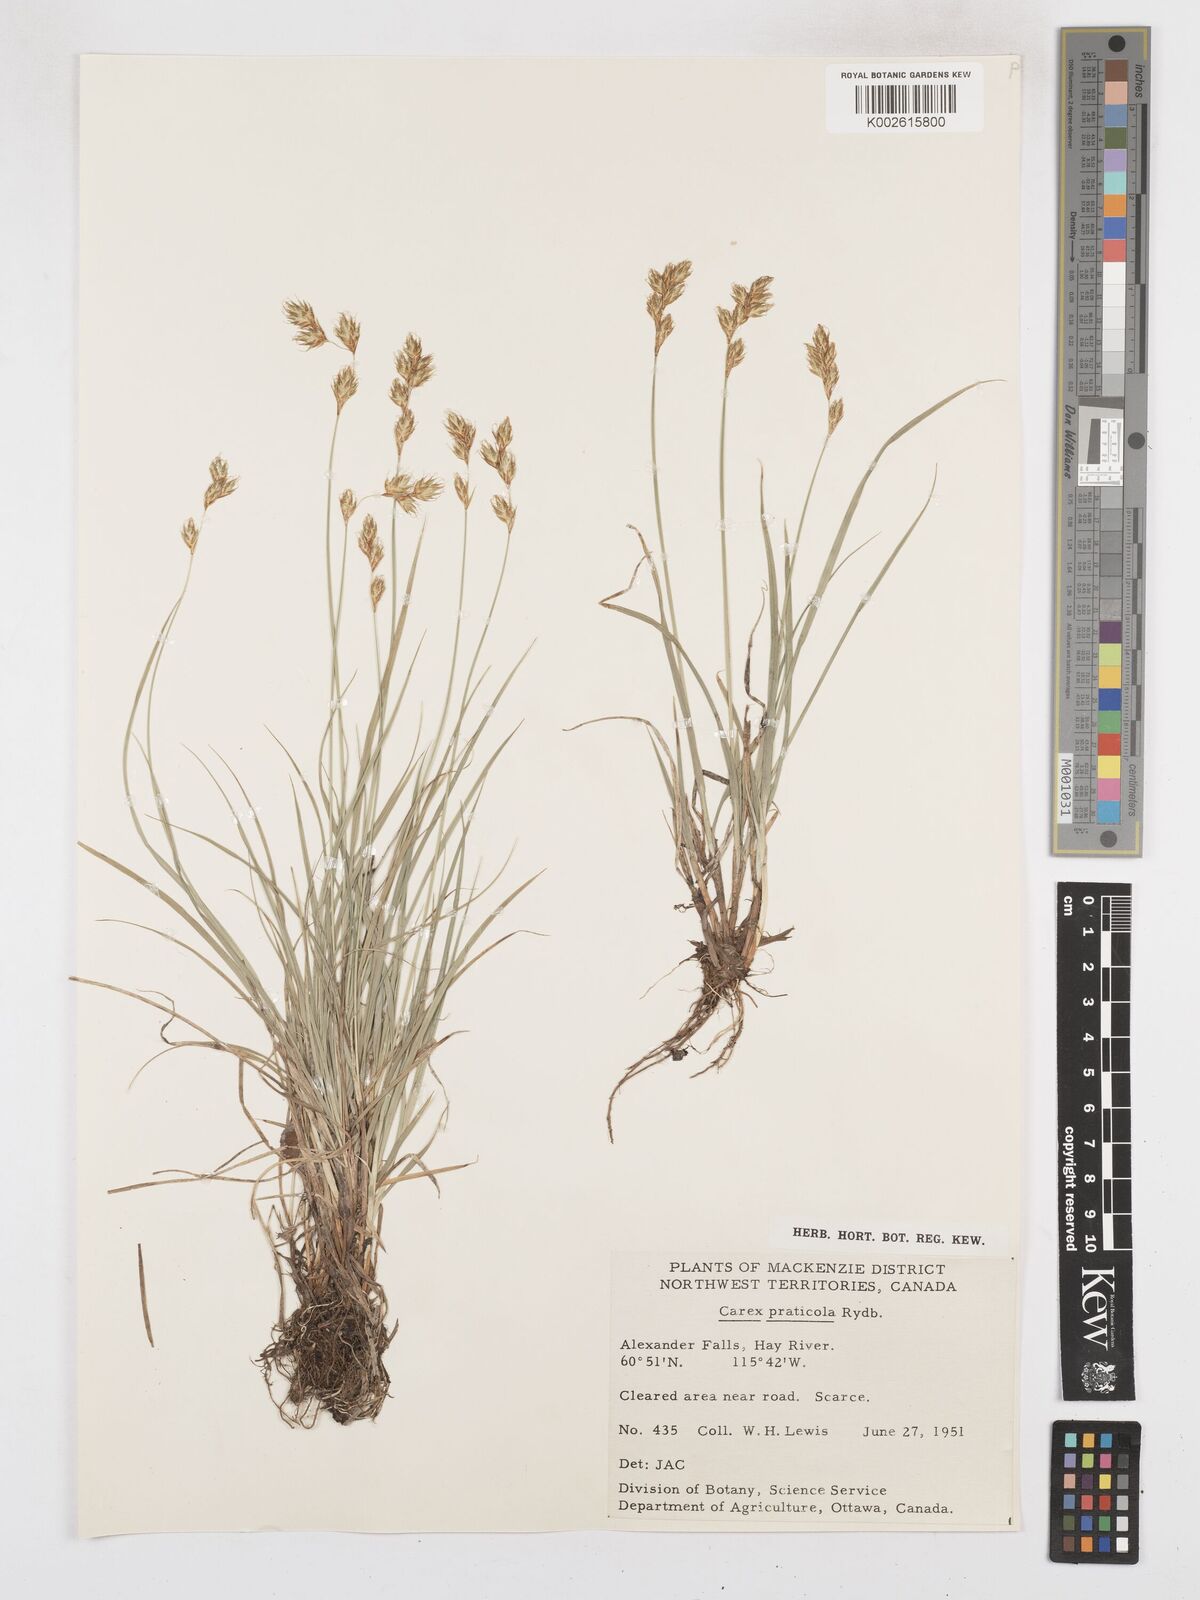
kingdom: Plantae
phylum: Tracheophyta
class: Liliopsida
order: Poales
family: Cyperaceae
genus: Carex
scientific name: Carex praticola
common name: Large-fruited oval sedge
